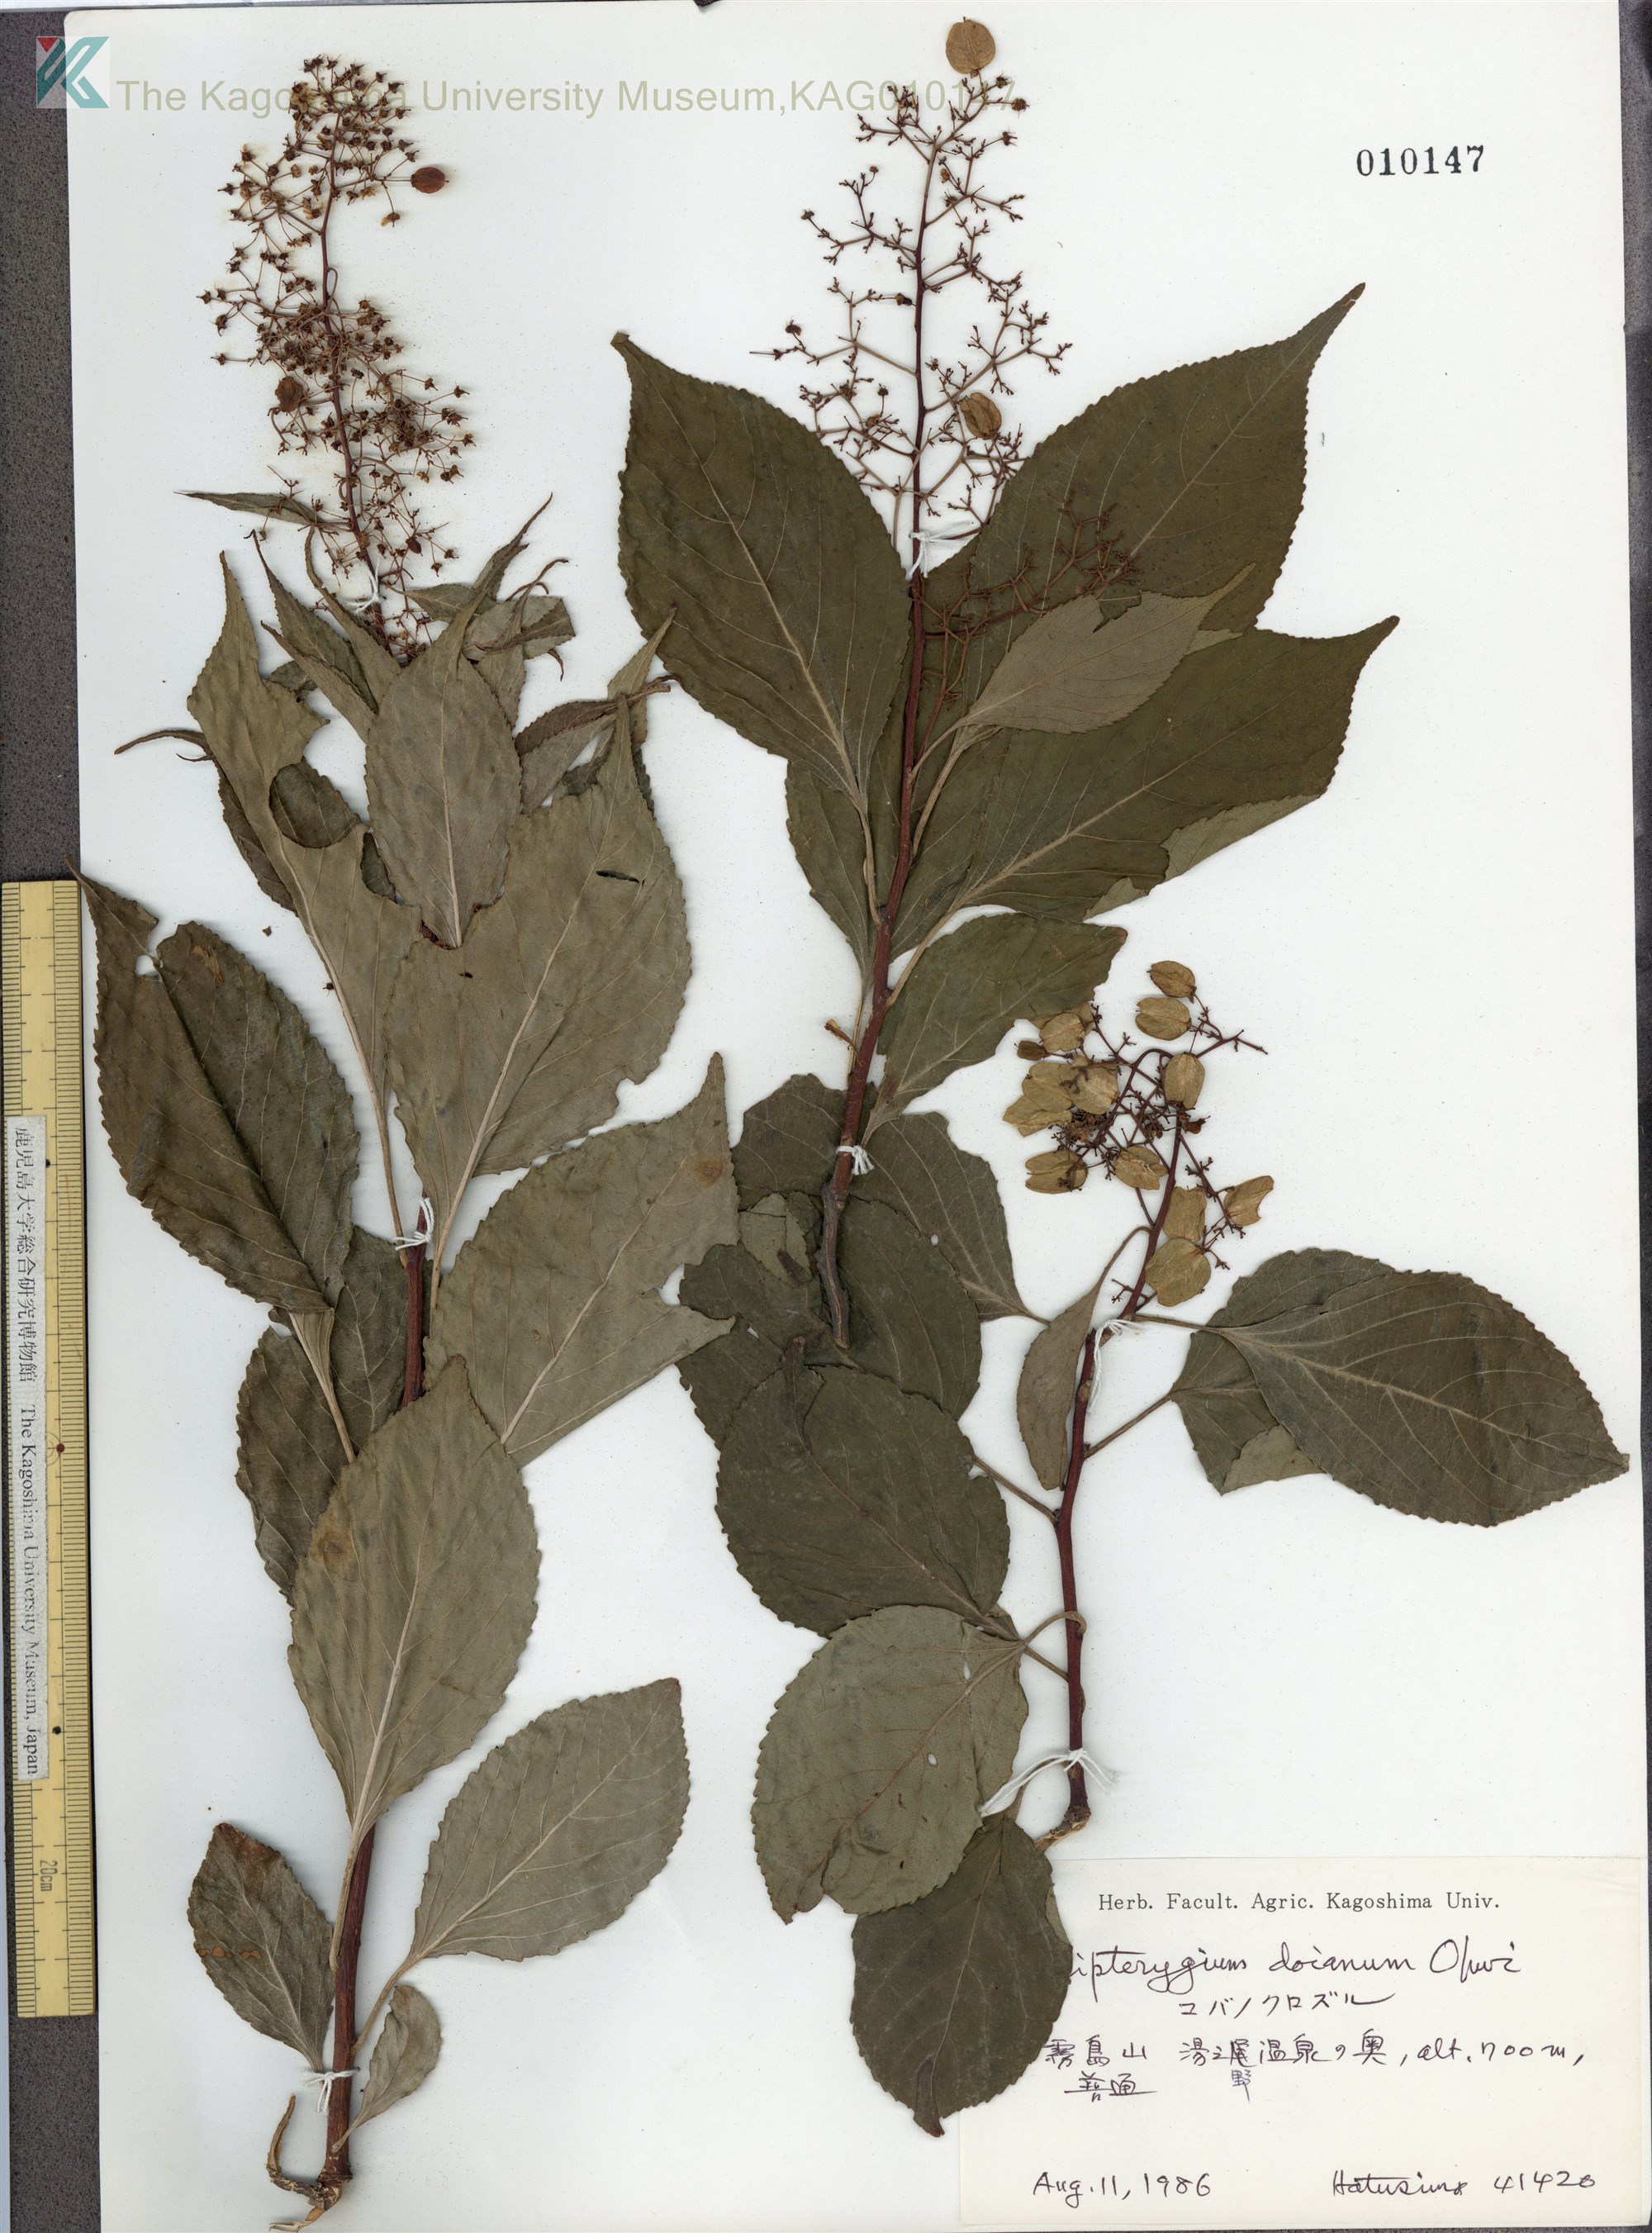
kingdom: Plantae
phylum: Tracheophyta
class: Magnoliopsida
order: Celastrales
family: Celastraceae
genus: Tripterygium
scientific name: Tripterygium doianum
